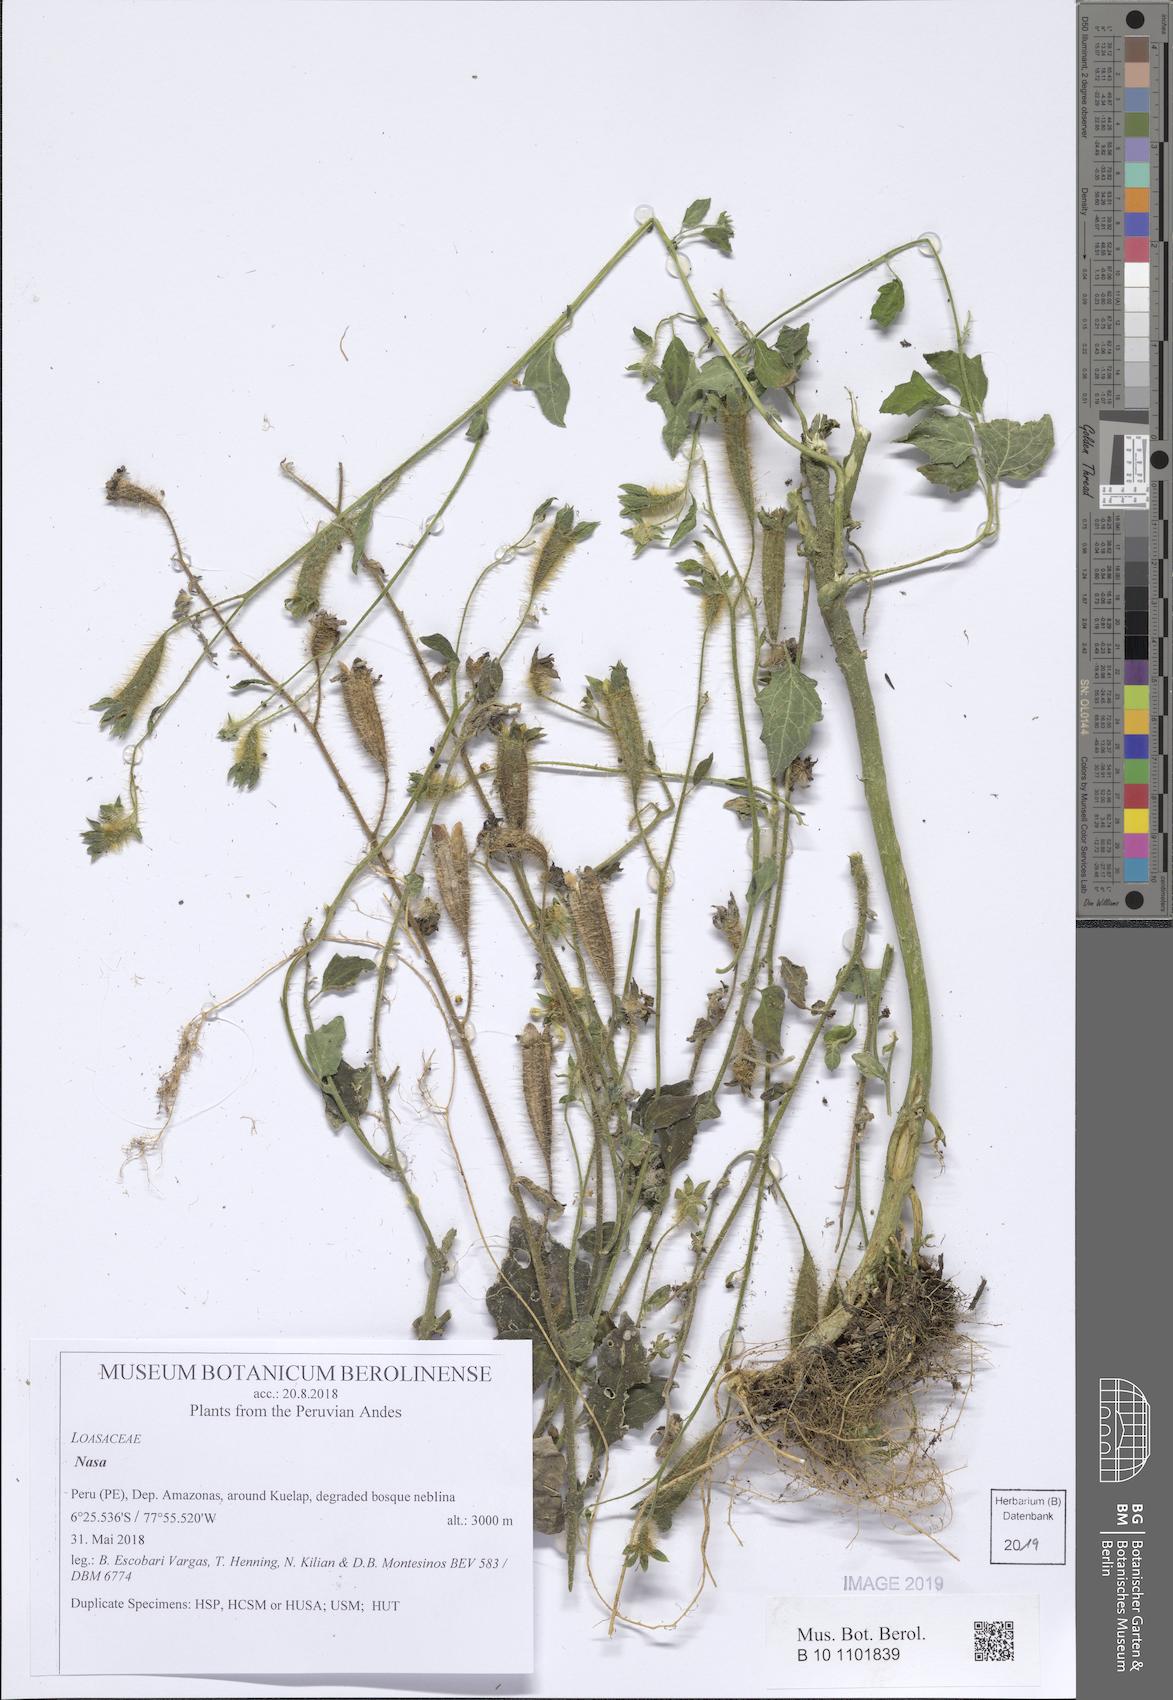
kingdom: Plantae
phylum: Tracheophyta
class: Magnoliopsida
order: Cornales
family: Loasaceae
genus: Nasa
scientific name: Nasa kuelapensis
